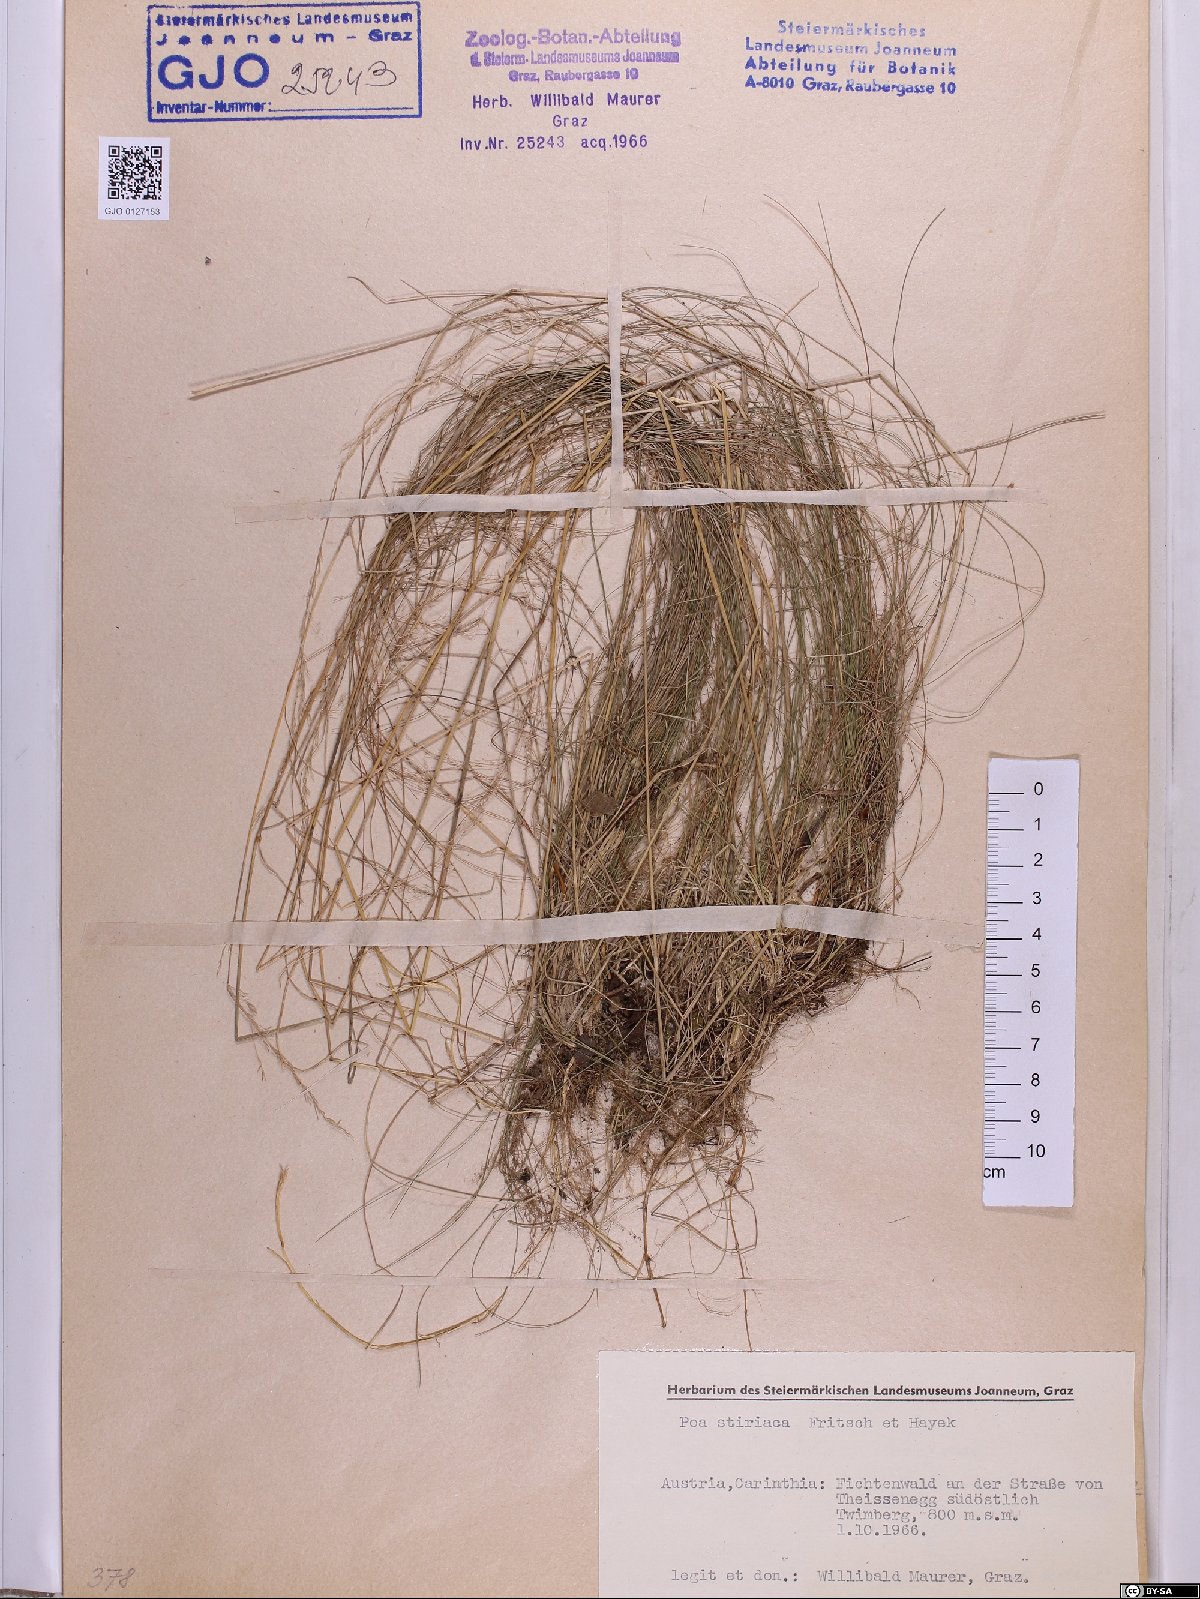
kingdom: Plantae
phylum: Tracheophyta
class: Liliopsida
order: Poales
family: Poaceae
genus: Poa
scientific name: Poa stiriaca
